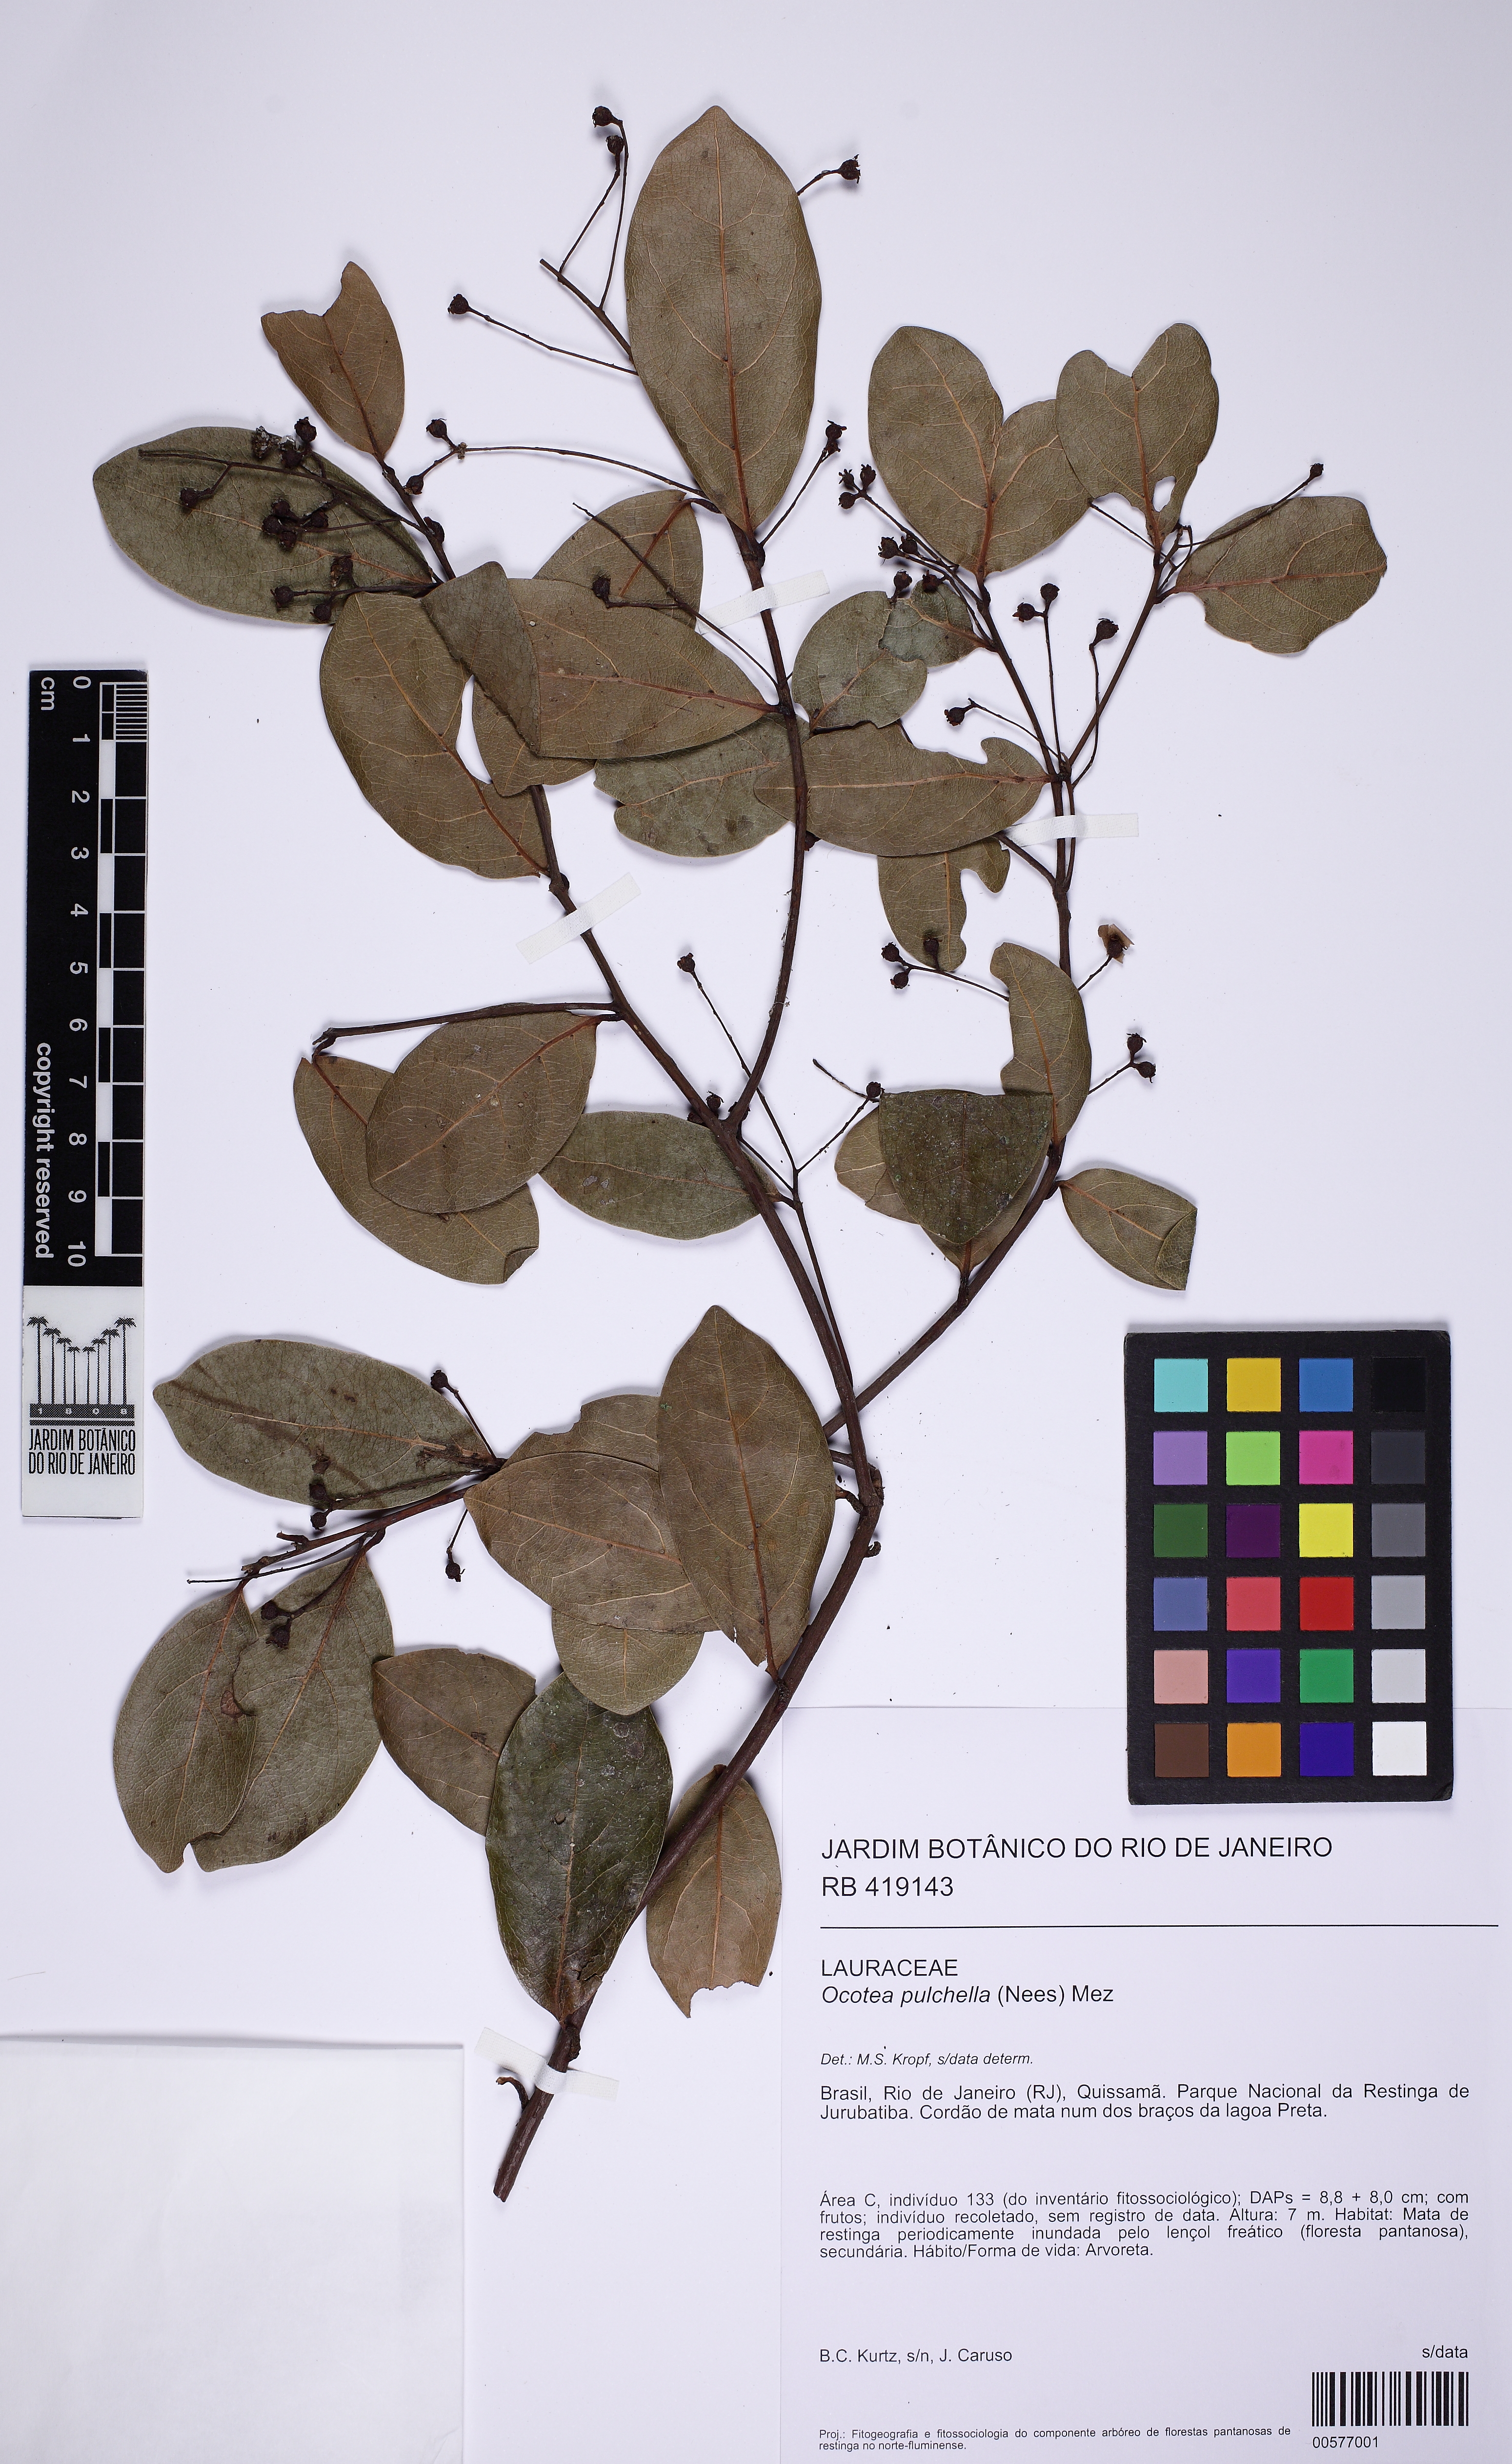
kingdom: Plantae
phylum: Tracheophyta
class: Magnoliopsida
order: Laurales
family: Lauraceae
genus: Mespilodaphne
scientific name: Mespilodaphne pulchella
